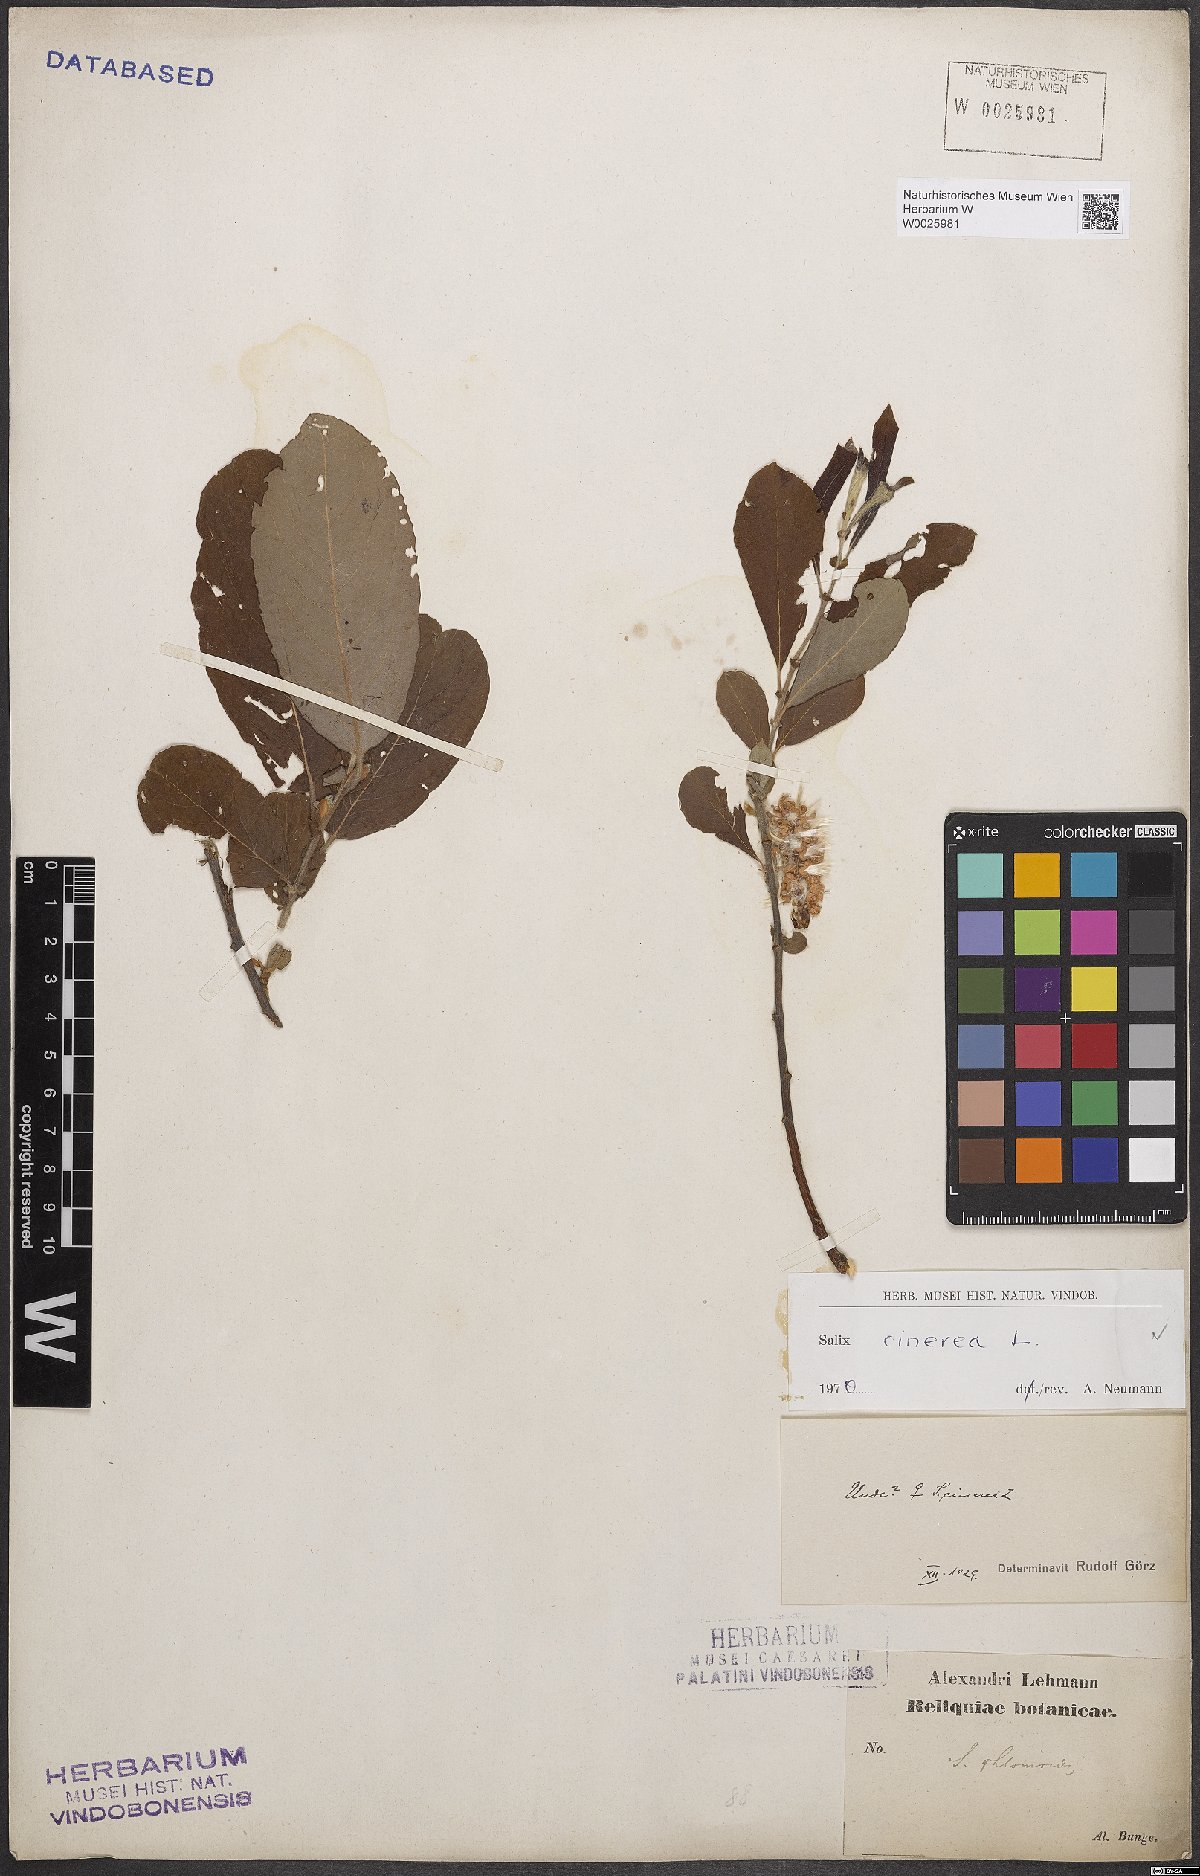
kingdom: Plantae
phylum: Tracheophyta
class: Magnoliopsida
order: Malpighiales
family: Salicaceae
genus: Salix
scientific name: Salix cinerea
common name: Common sallow
